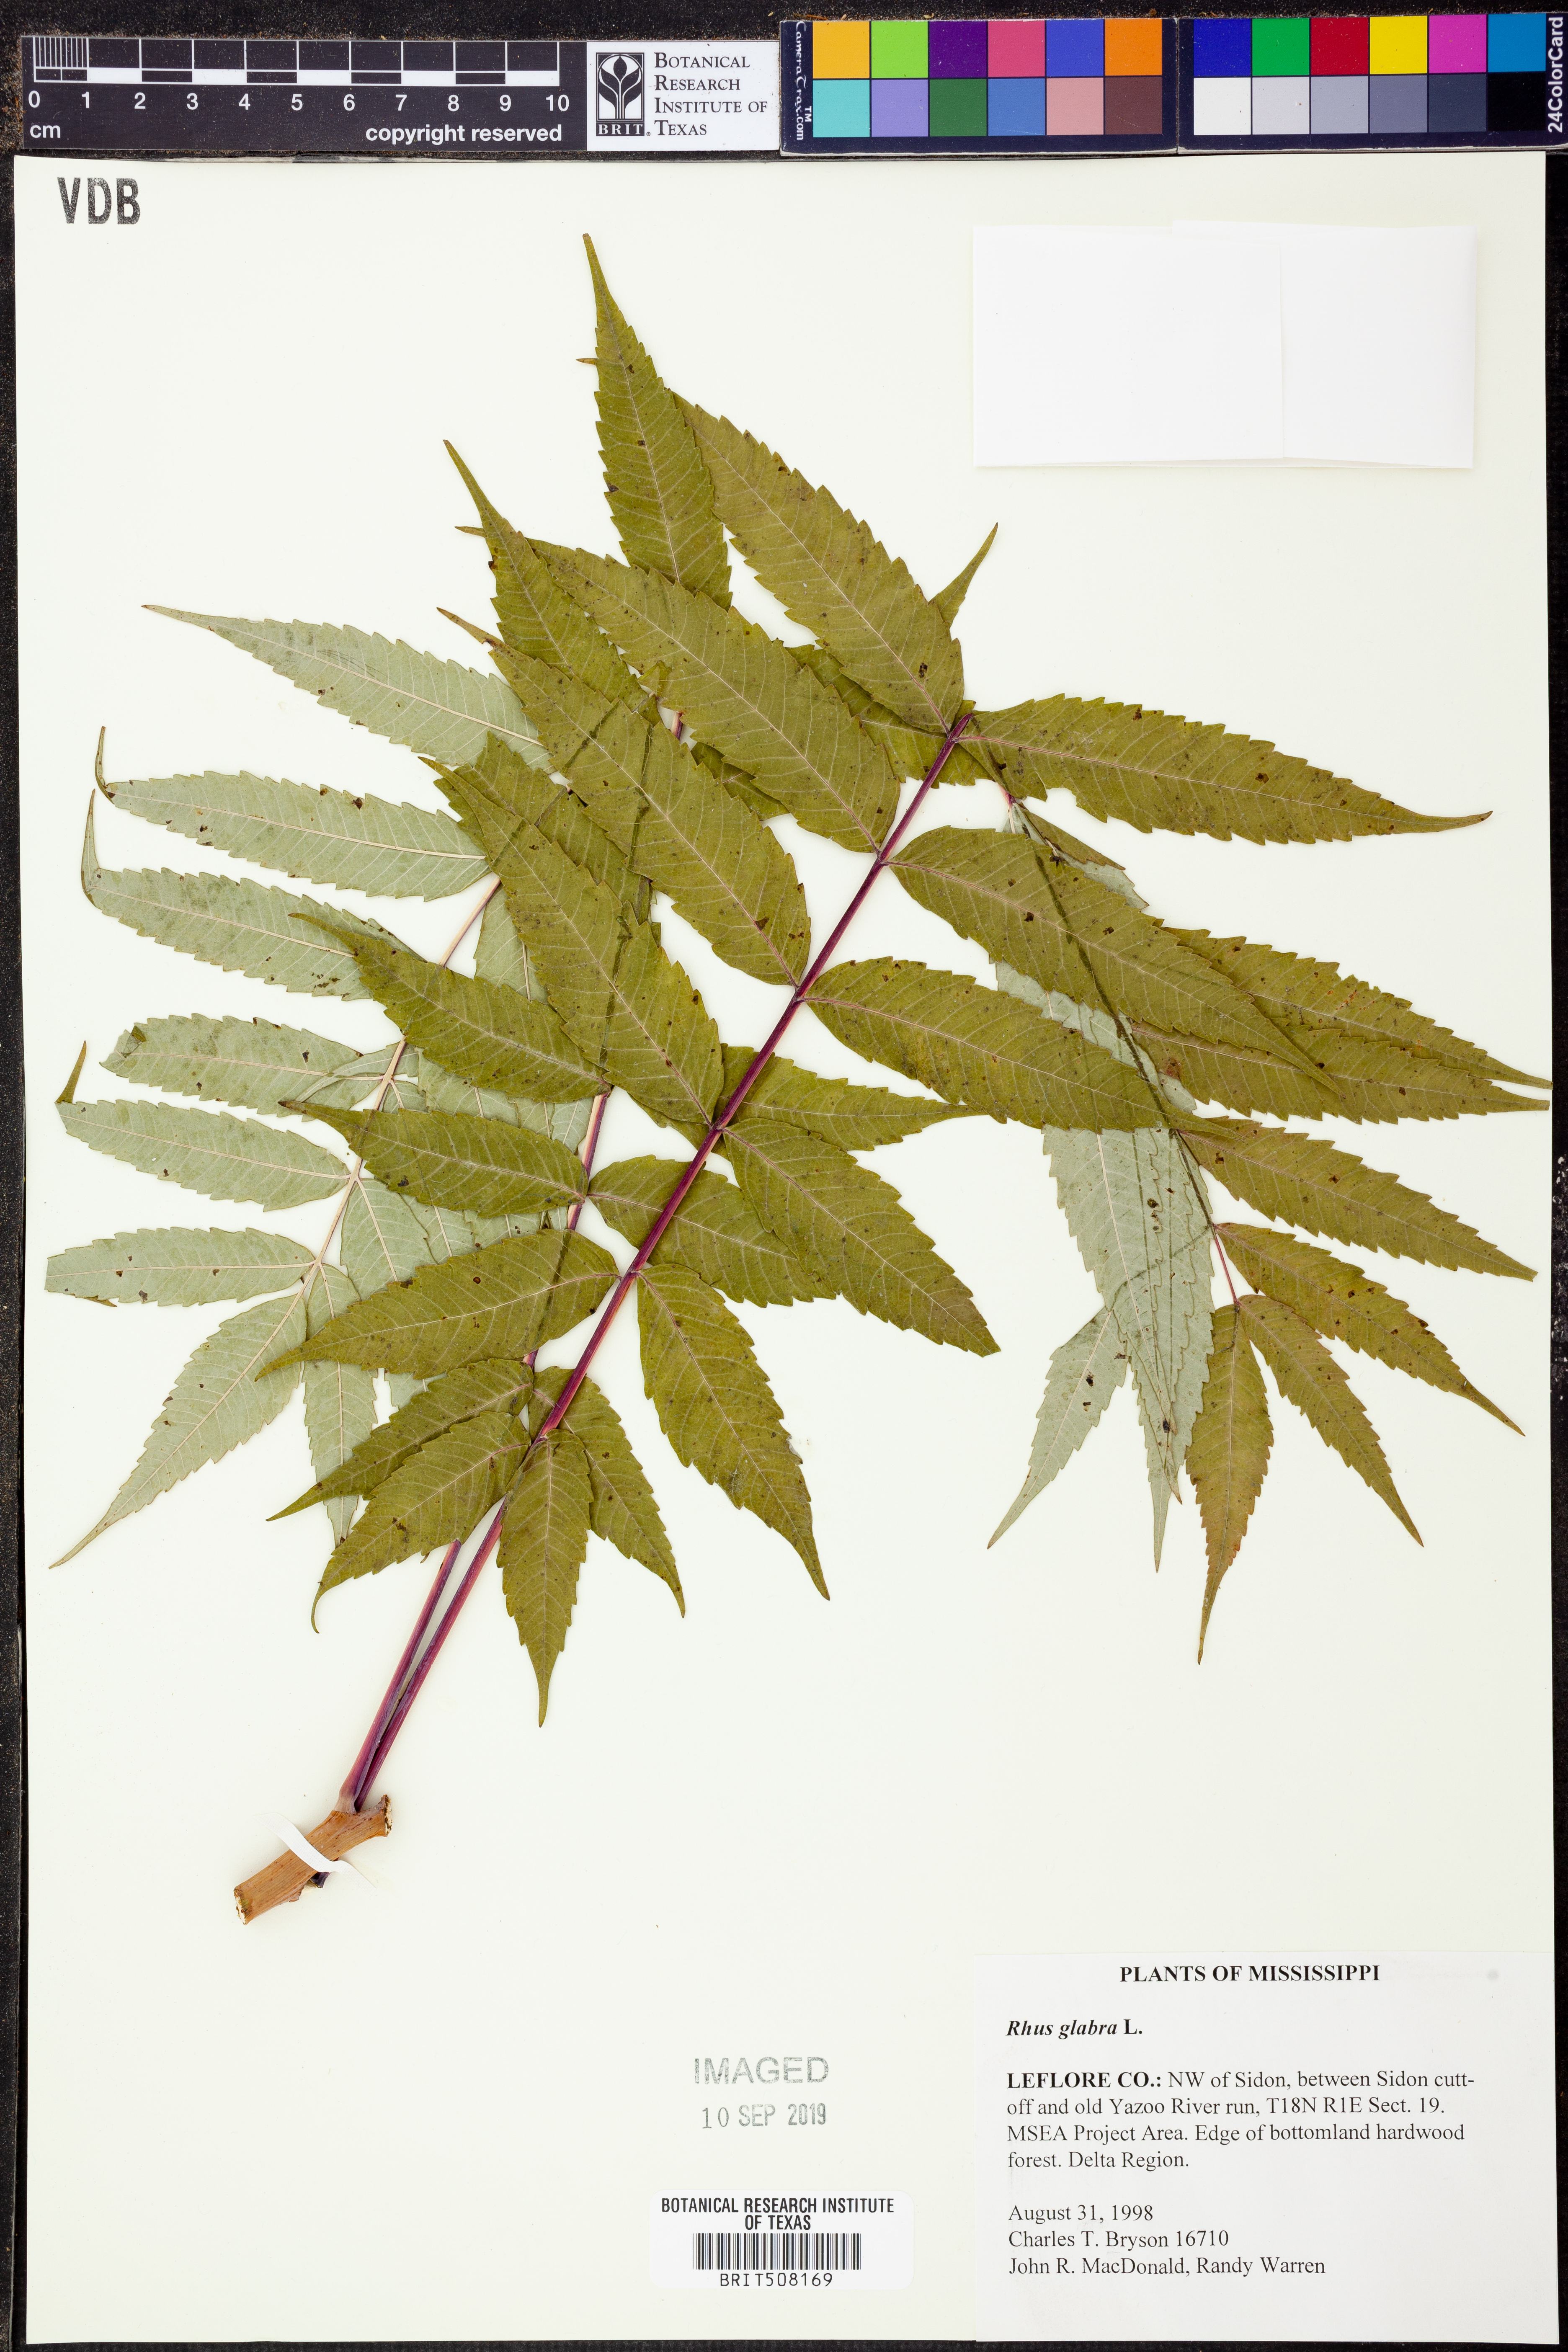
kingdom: Plantae
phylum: Tracheophyta
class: Magnoliopsida
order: Sapindales
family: Anacardiaceae
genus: Rhus
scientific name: Rhus glabra
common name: Scarlet sumac
